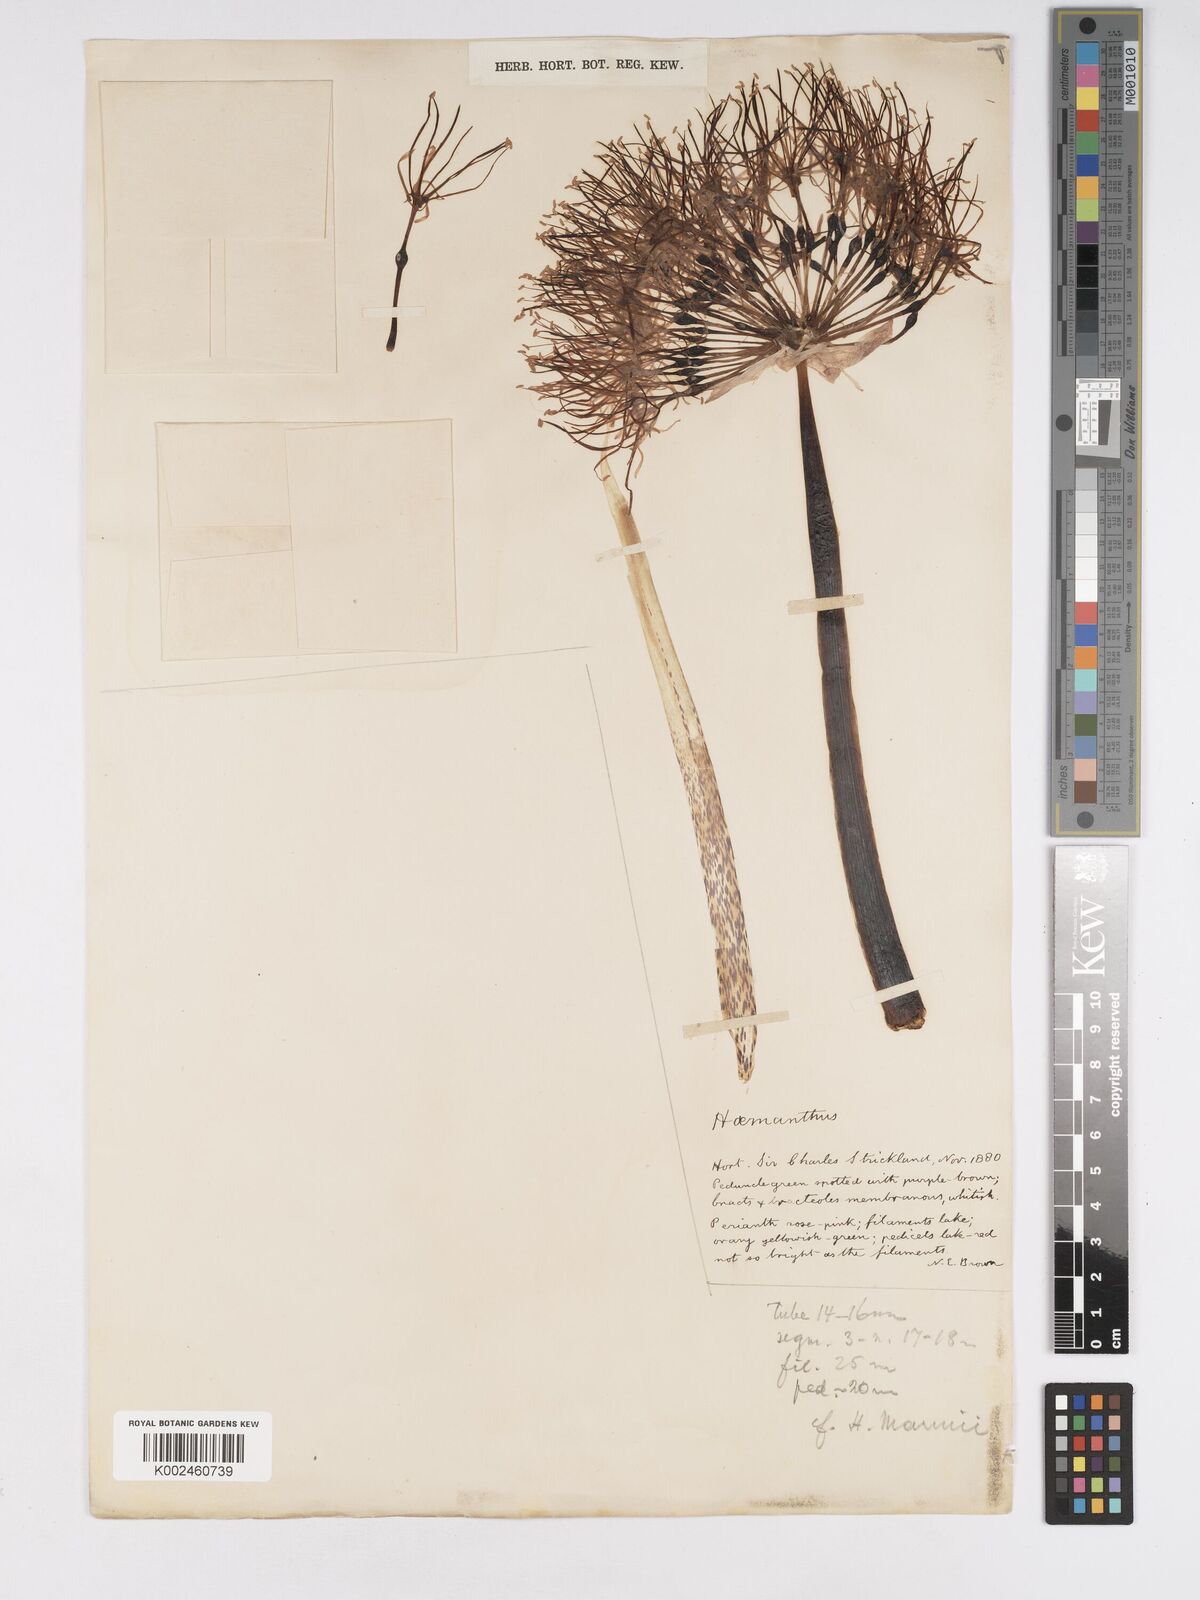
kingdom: Plantae
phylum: Tracheophyta
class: Liliopsida
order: Asparagales
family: Amaryllidaceae
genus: Scadoxus
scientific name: Scadoxus multiflorus
